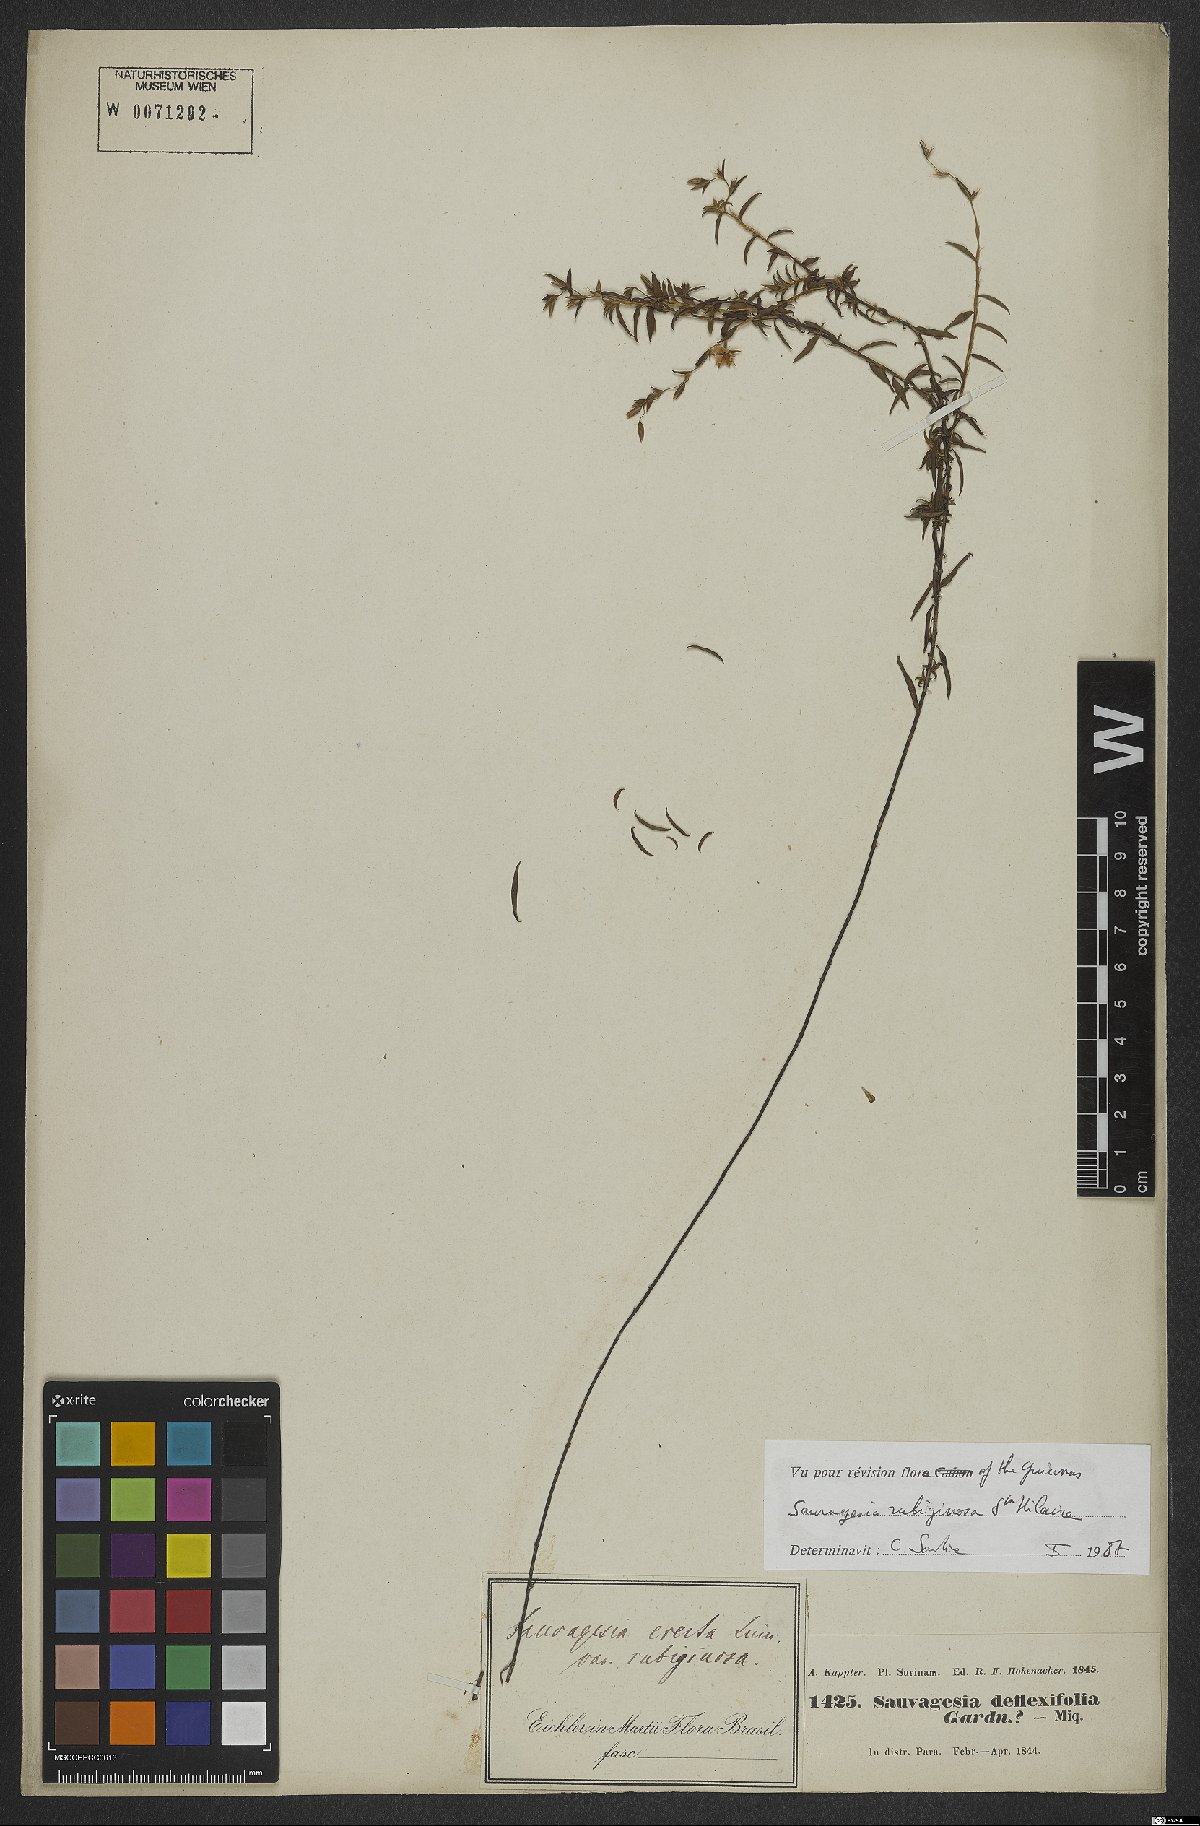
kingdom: Plantae
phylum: Tracheophyta
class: Magnoliopsida
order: Malpighiales
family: Ochnaceae
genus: Sauvagesia
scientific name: Sauvagesia rubiginosa
